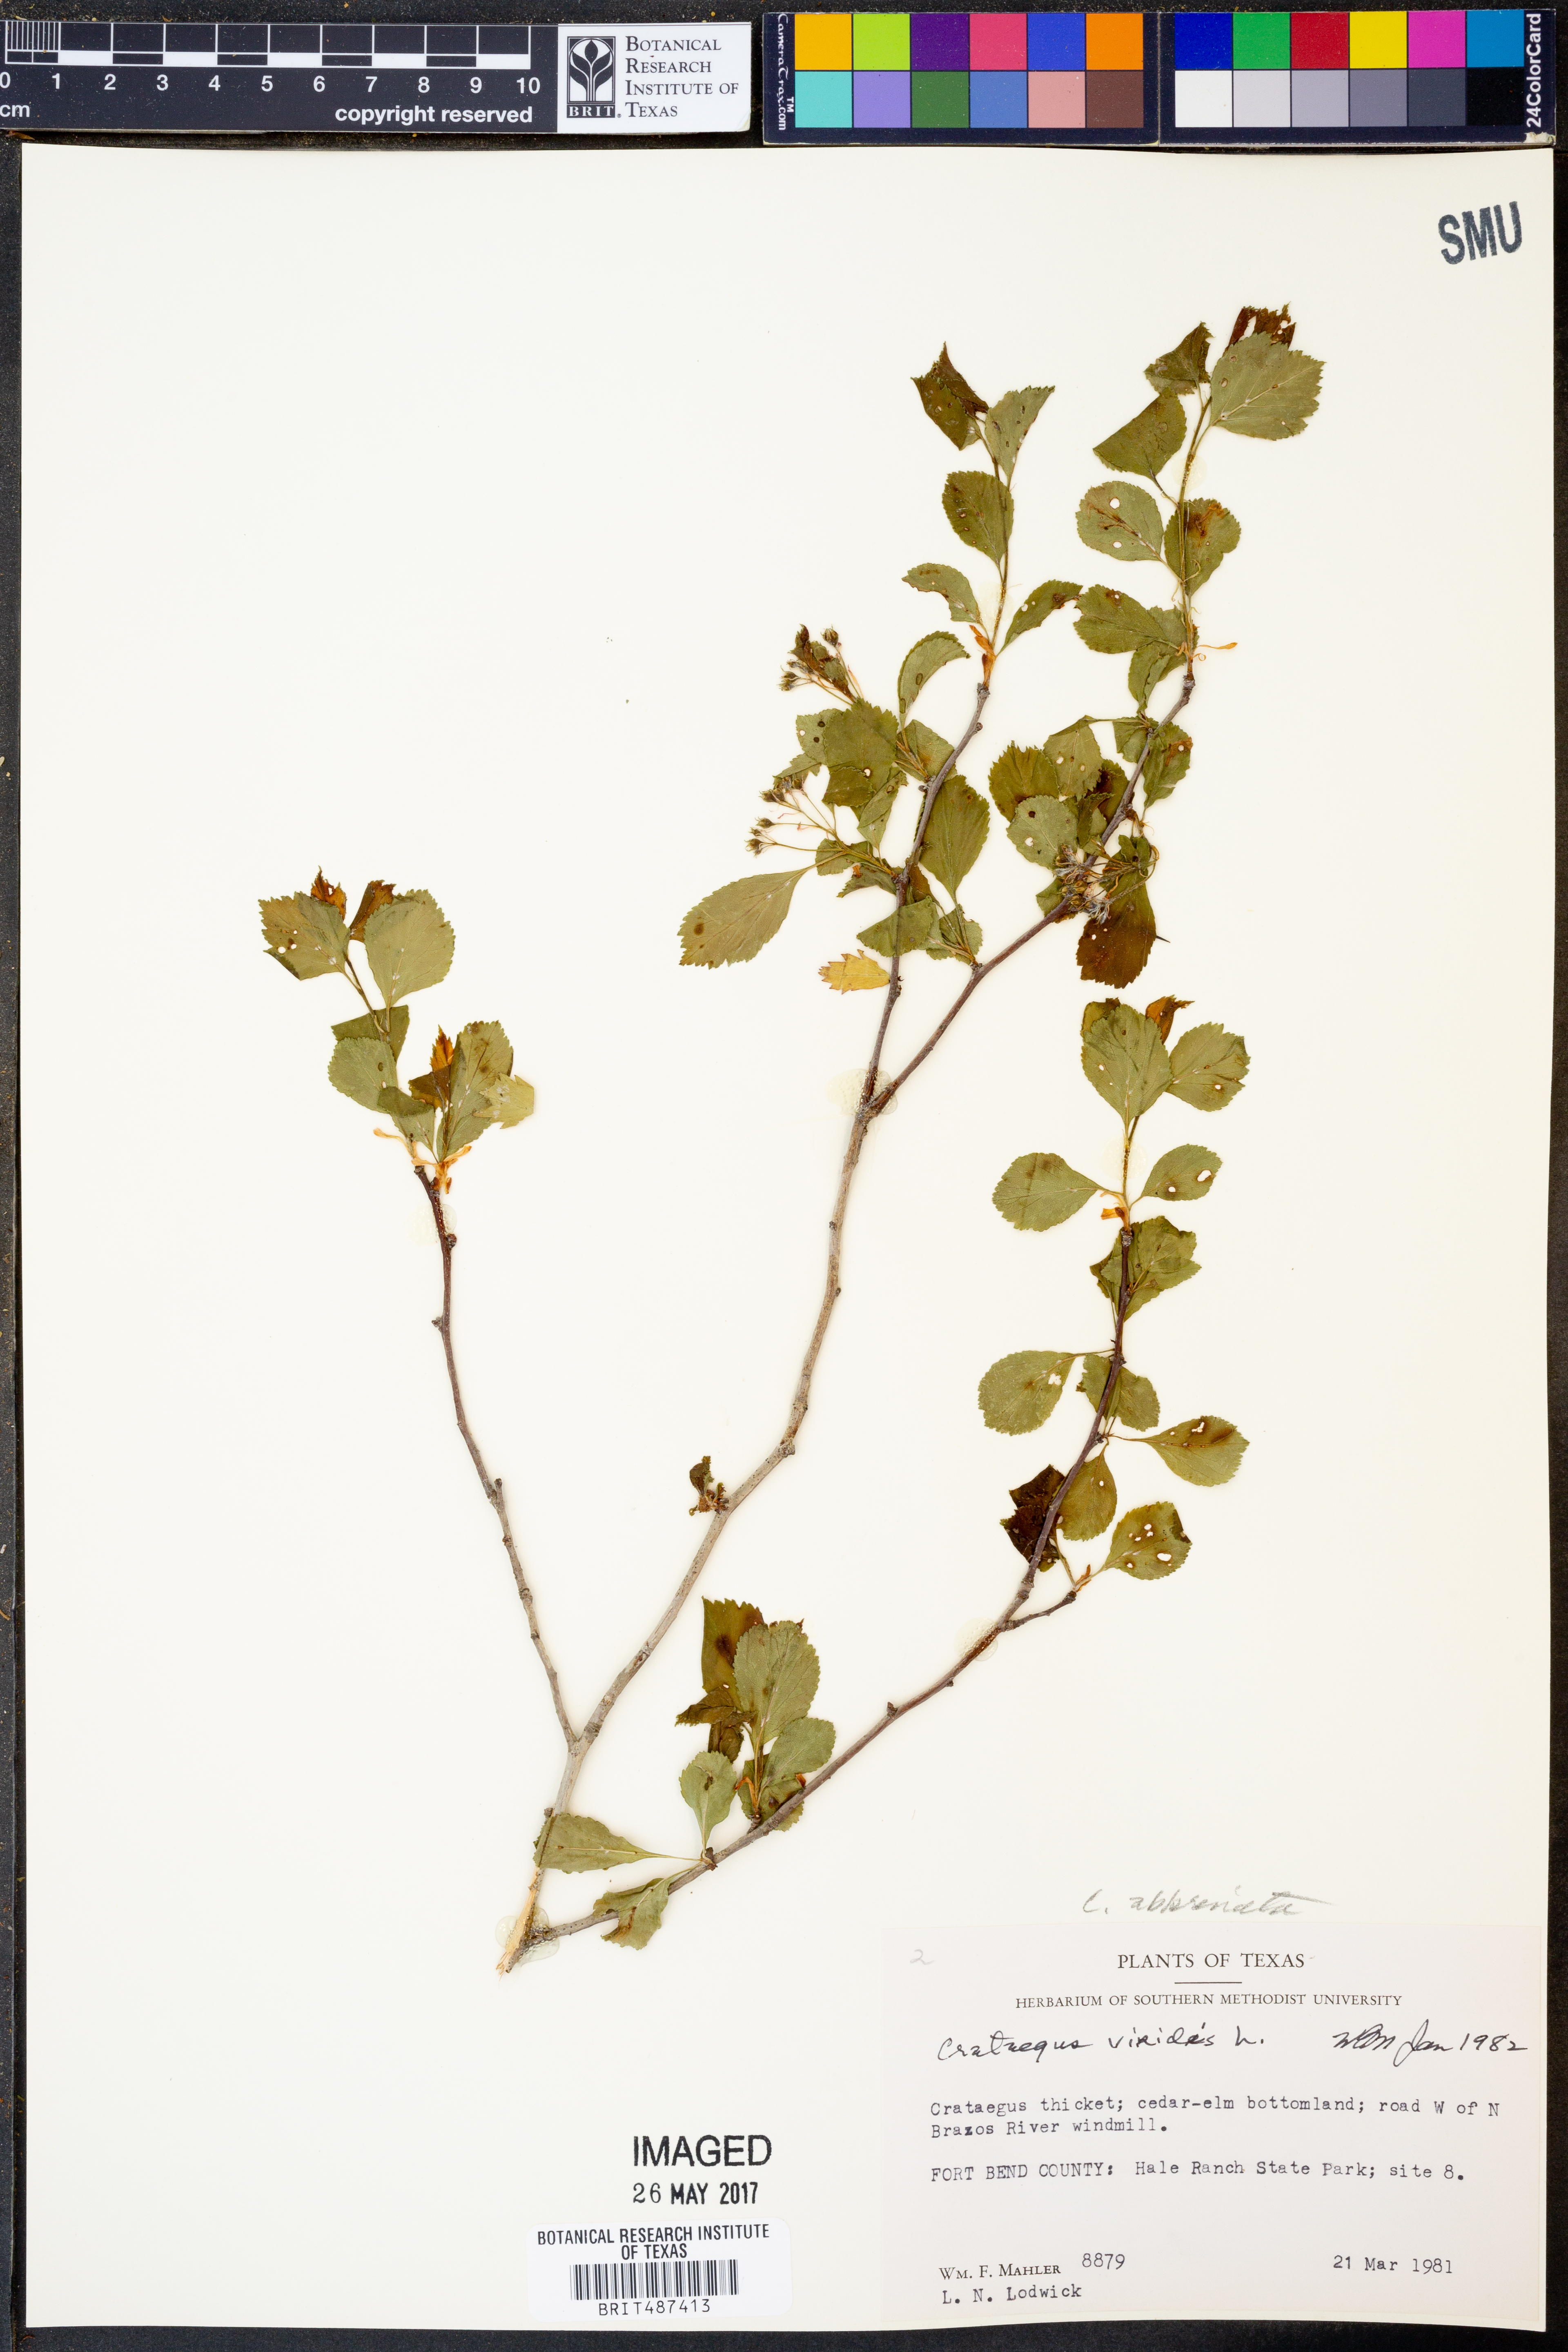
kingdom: Plantae
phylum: Tracheophyta
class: Magnoliopsida
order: Rosales
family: Rosaceae
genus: Crataegus
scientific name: Crataegus viridis
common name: Southernthorn
